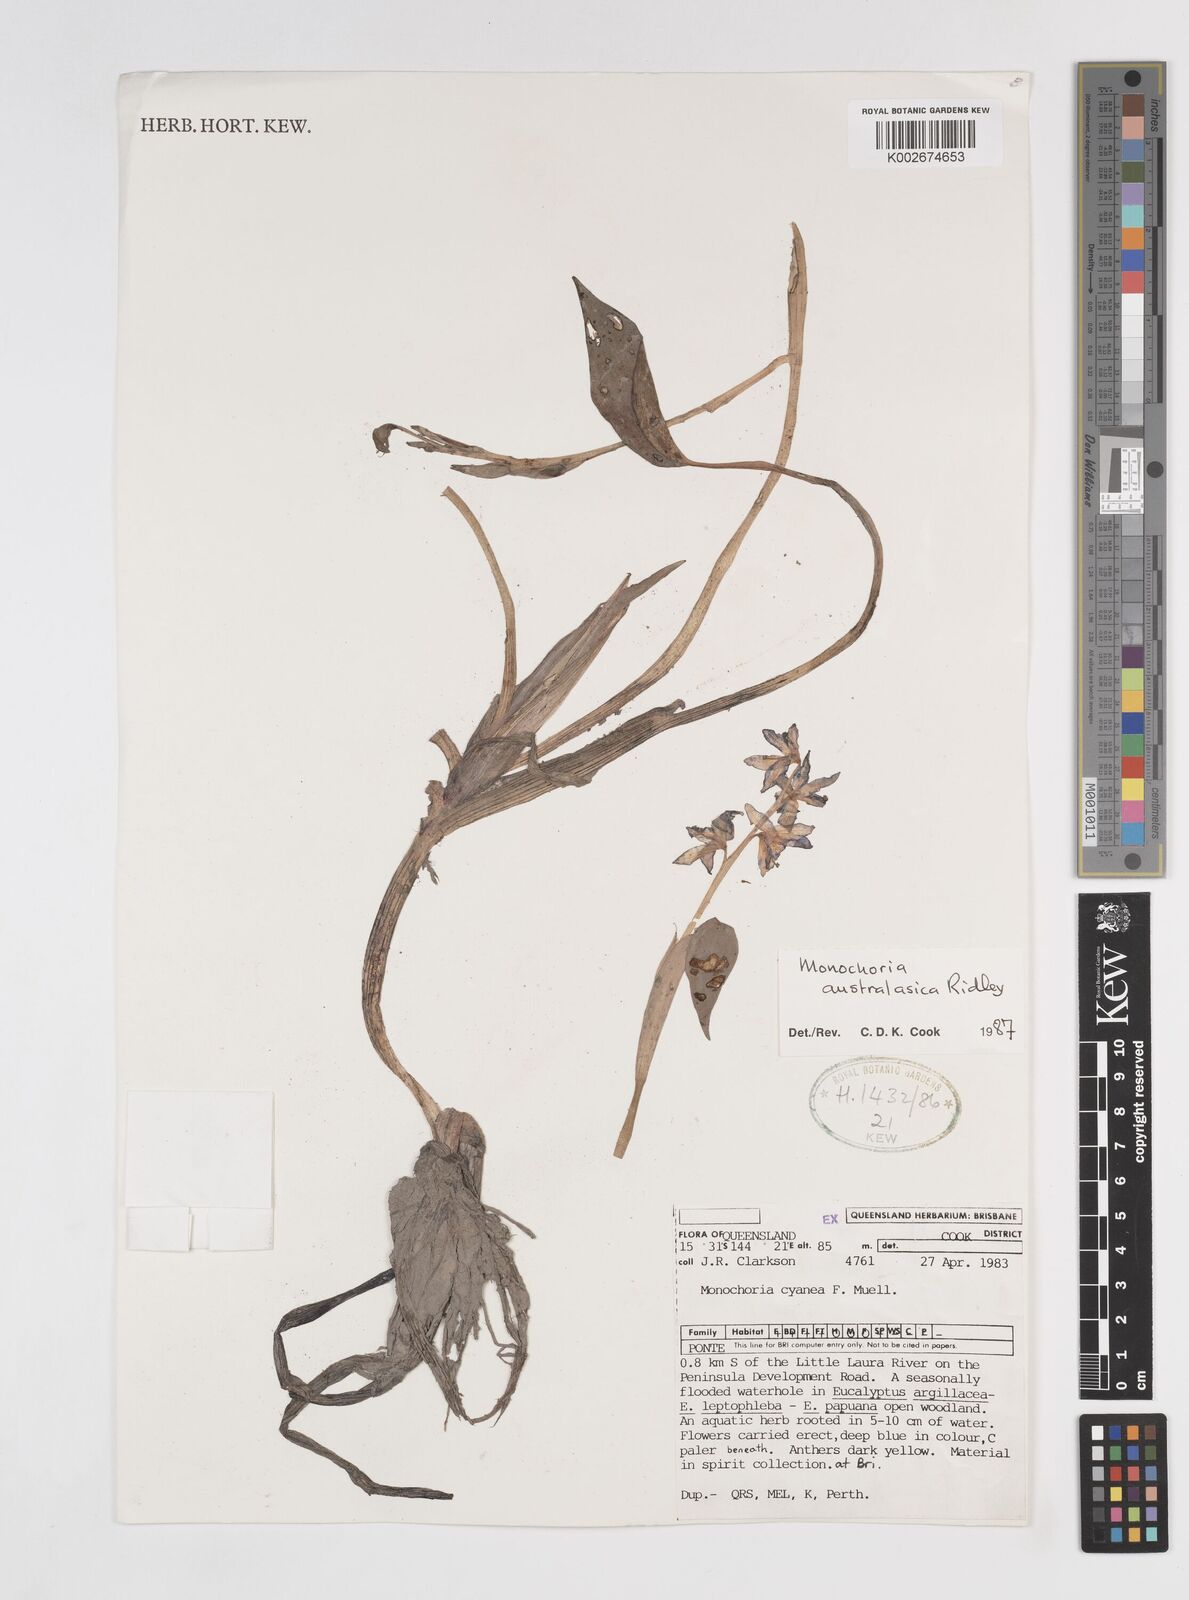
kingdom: Plantae
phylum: Tracheophyta
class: Liliopsida
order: Commelinales
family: Pontederiaceae
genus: Pontederia
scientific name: Pontederia australasica
